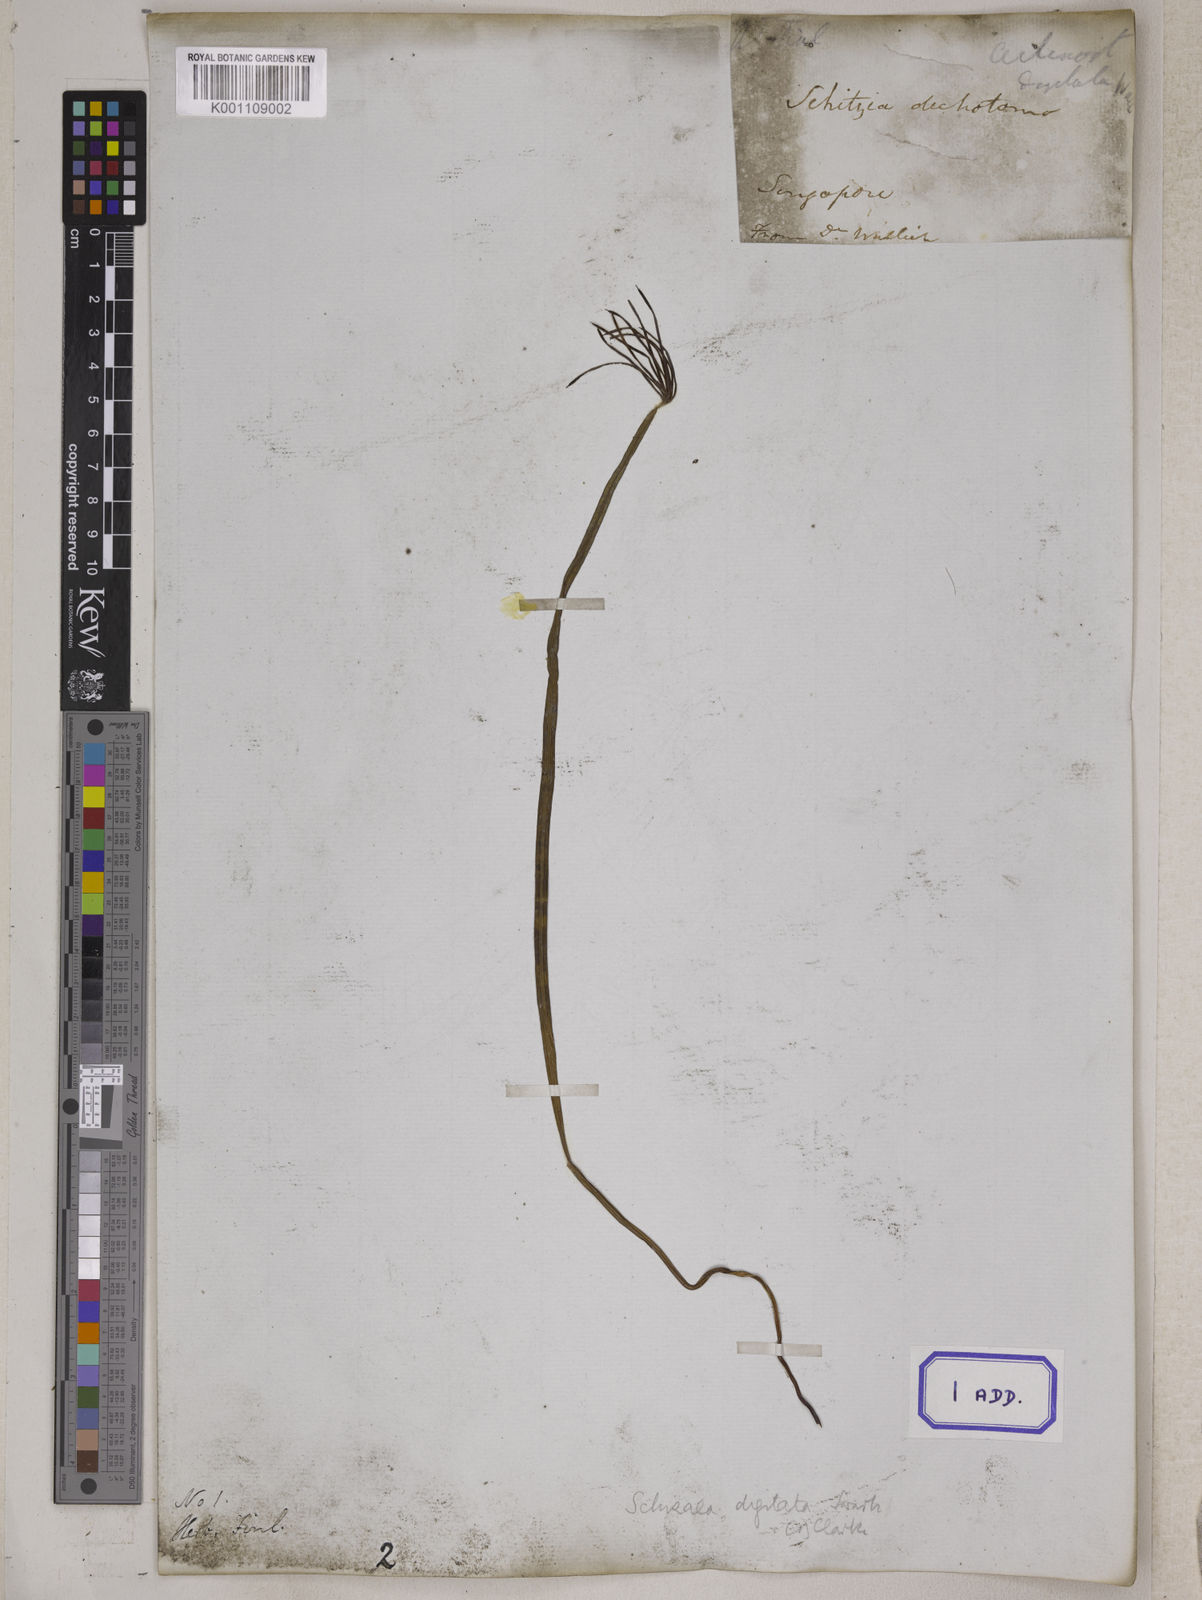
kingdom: Plantae
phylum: Tracheophyta
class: Polypodiopsida
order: Schizaeales
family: Schizaeaceae
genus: Actinostachys
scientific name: Actinostachys digitata
